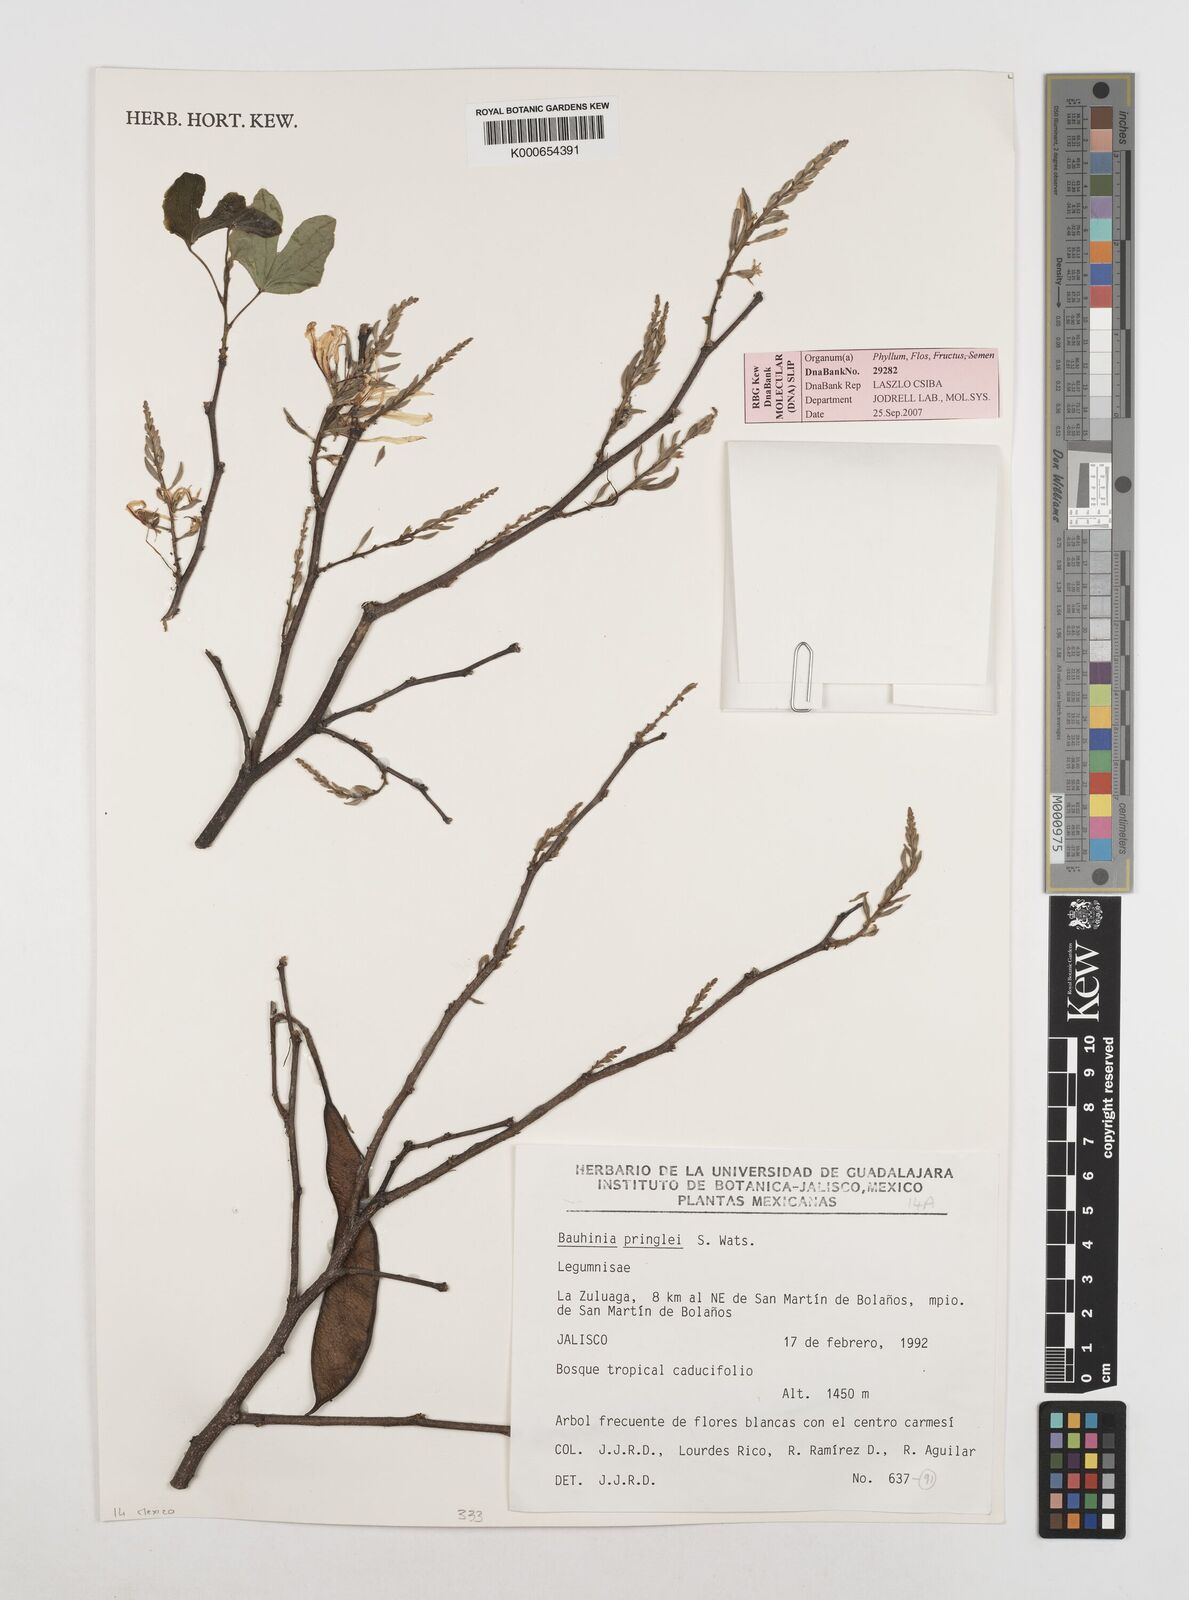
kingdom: Plantae
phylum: Tracheophyta
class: Magnoliopsida
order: Fabales
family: Fabaceae
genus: Bauhinia
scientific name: Bauhinia pringlei
